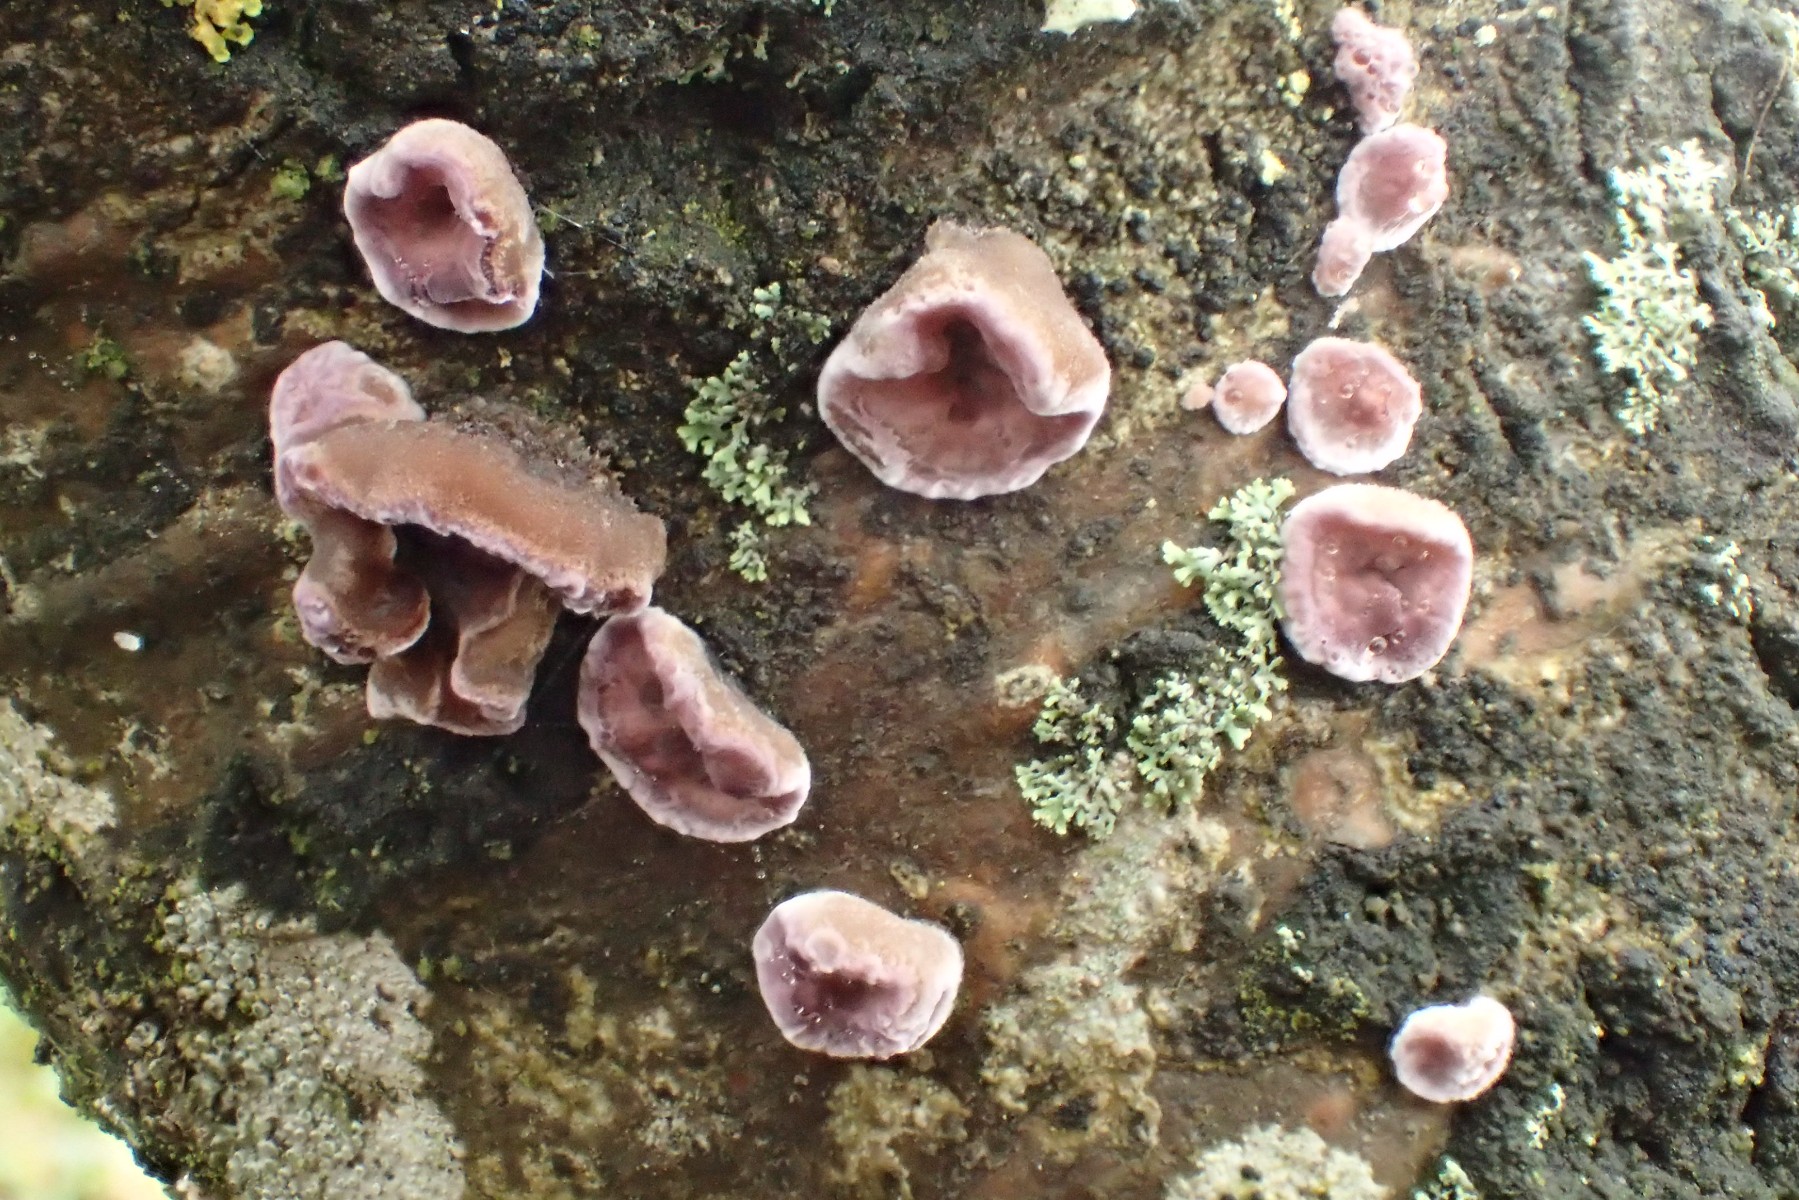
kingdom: Fungi
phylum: Basidiomycota
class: Agaricomycetes
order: Agaricales
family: Cyphellaceae
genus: Chondrostereum
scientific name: Chondrostereum purpureum
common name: purpurlædersvamp
